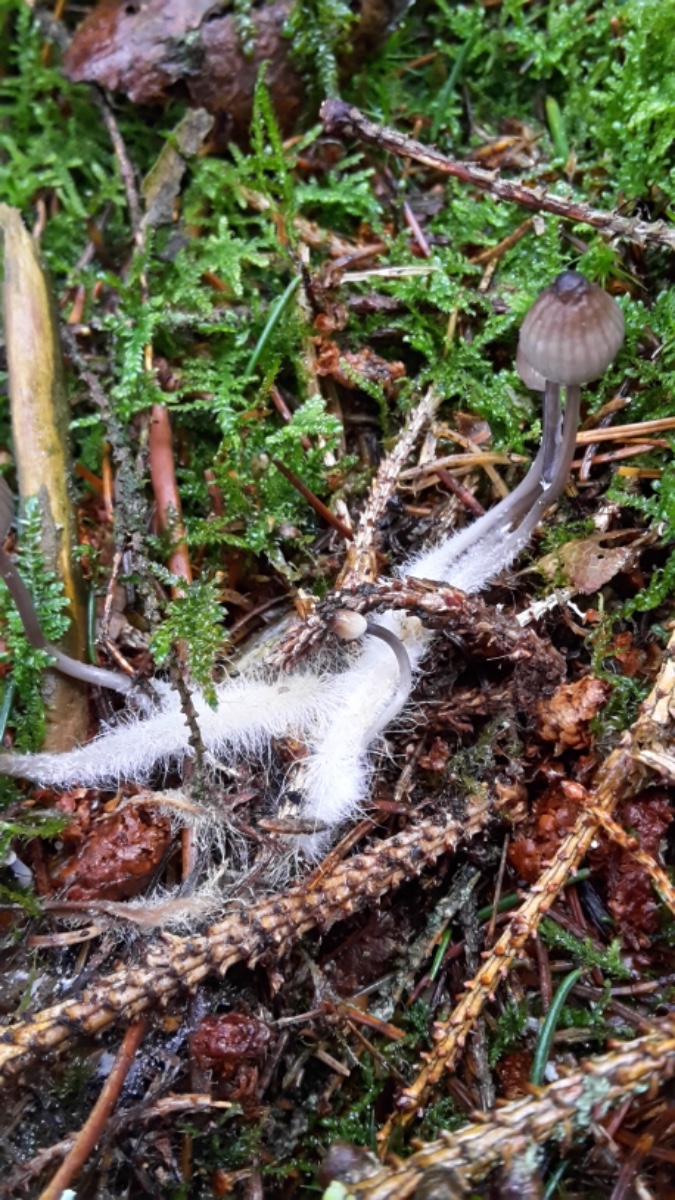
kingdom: Fungi
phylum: Basidiomycota
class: Agaricomycetes
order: Agaricales
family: Mycenaceae
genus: Mycena
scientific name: Mycena galopus
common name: hvidmælket huesvamp
